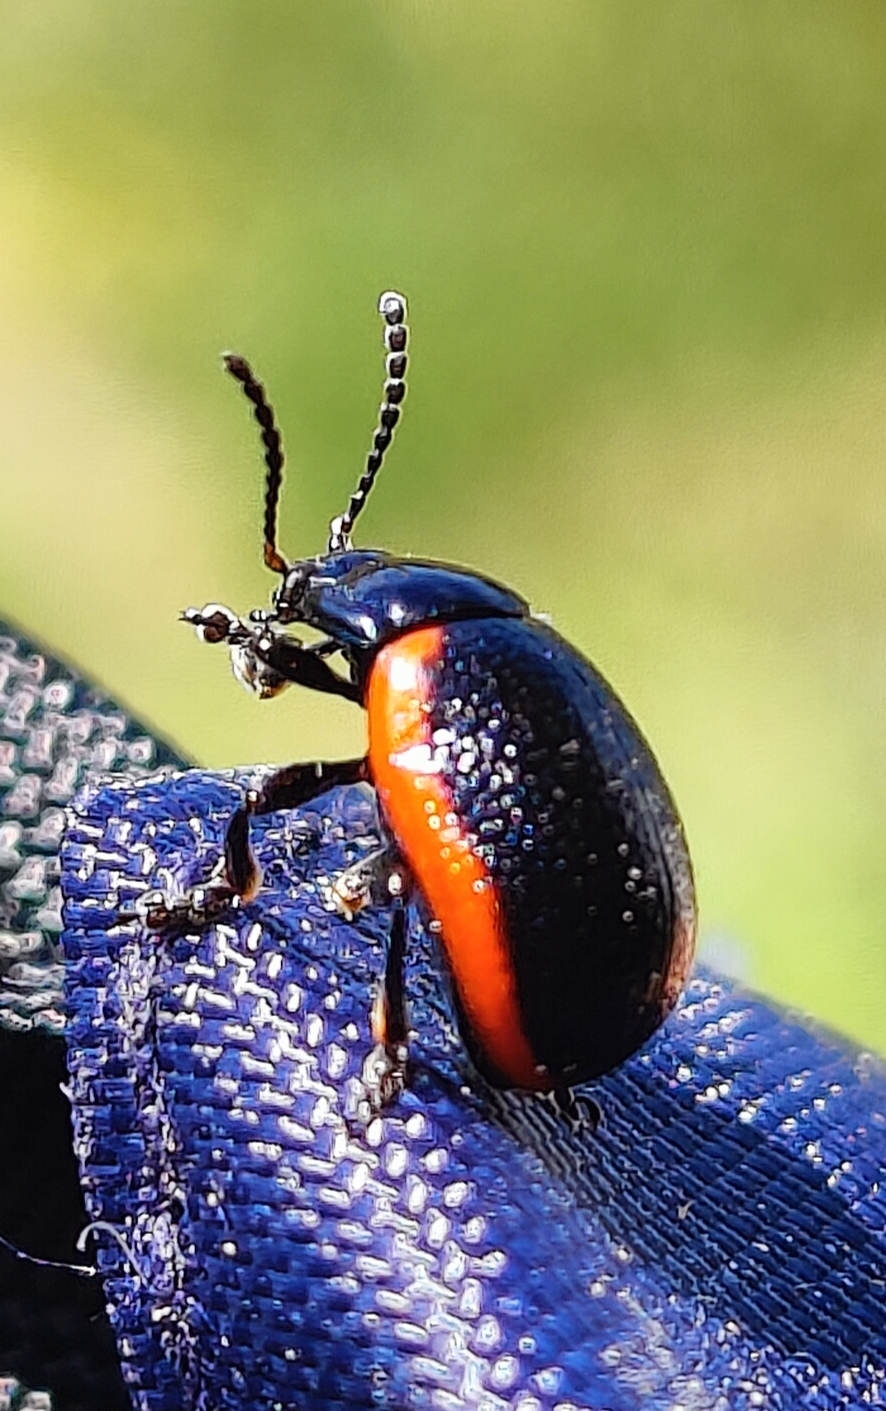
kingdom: Animalia
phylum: Arthropoda
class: Insecta
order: Coleoptera
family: Chrysomelidae
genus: Chrysolina
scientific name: Chrysolina sanguinolenta
